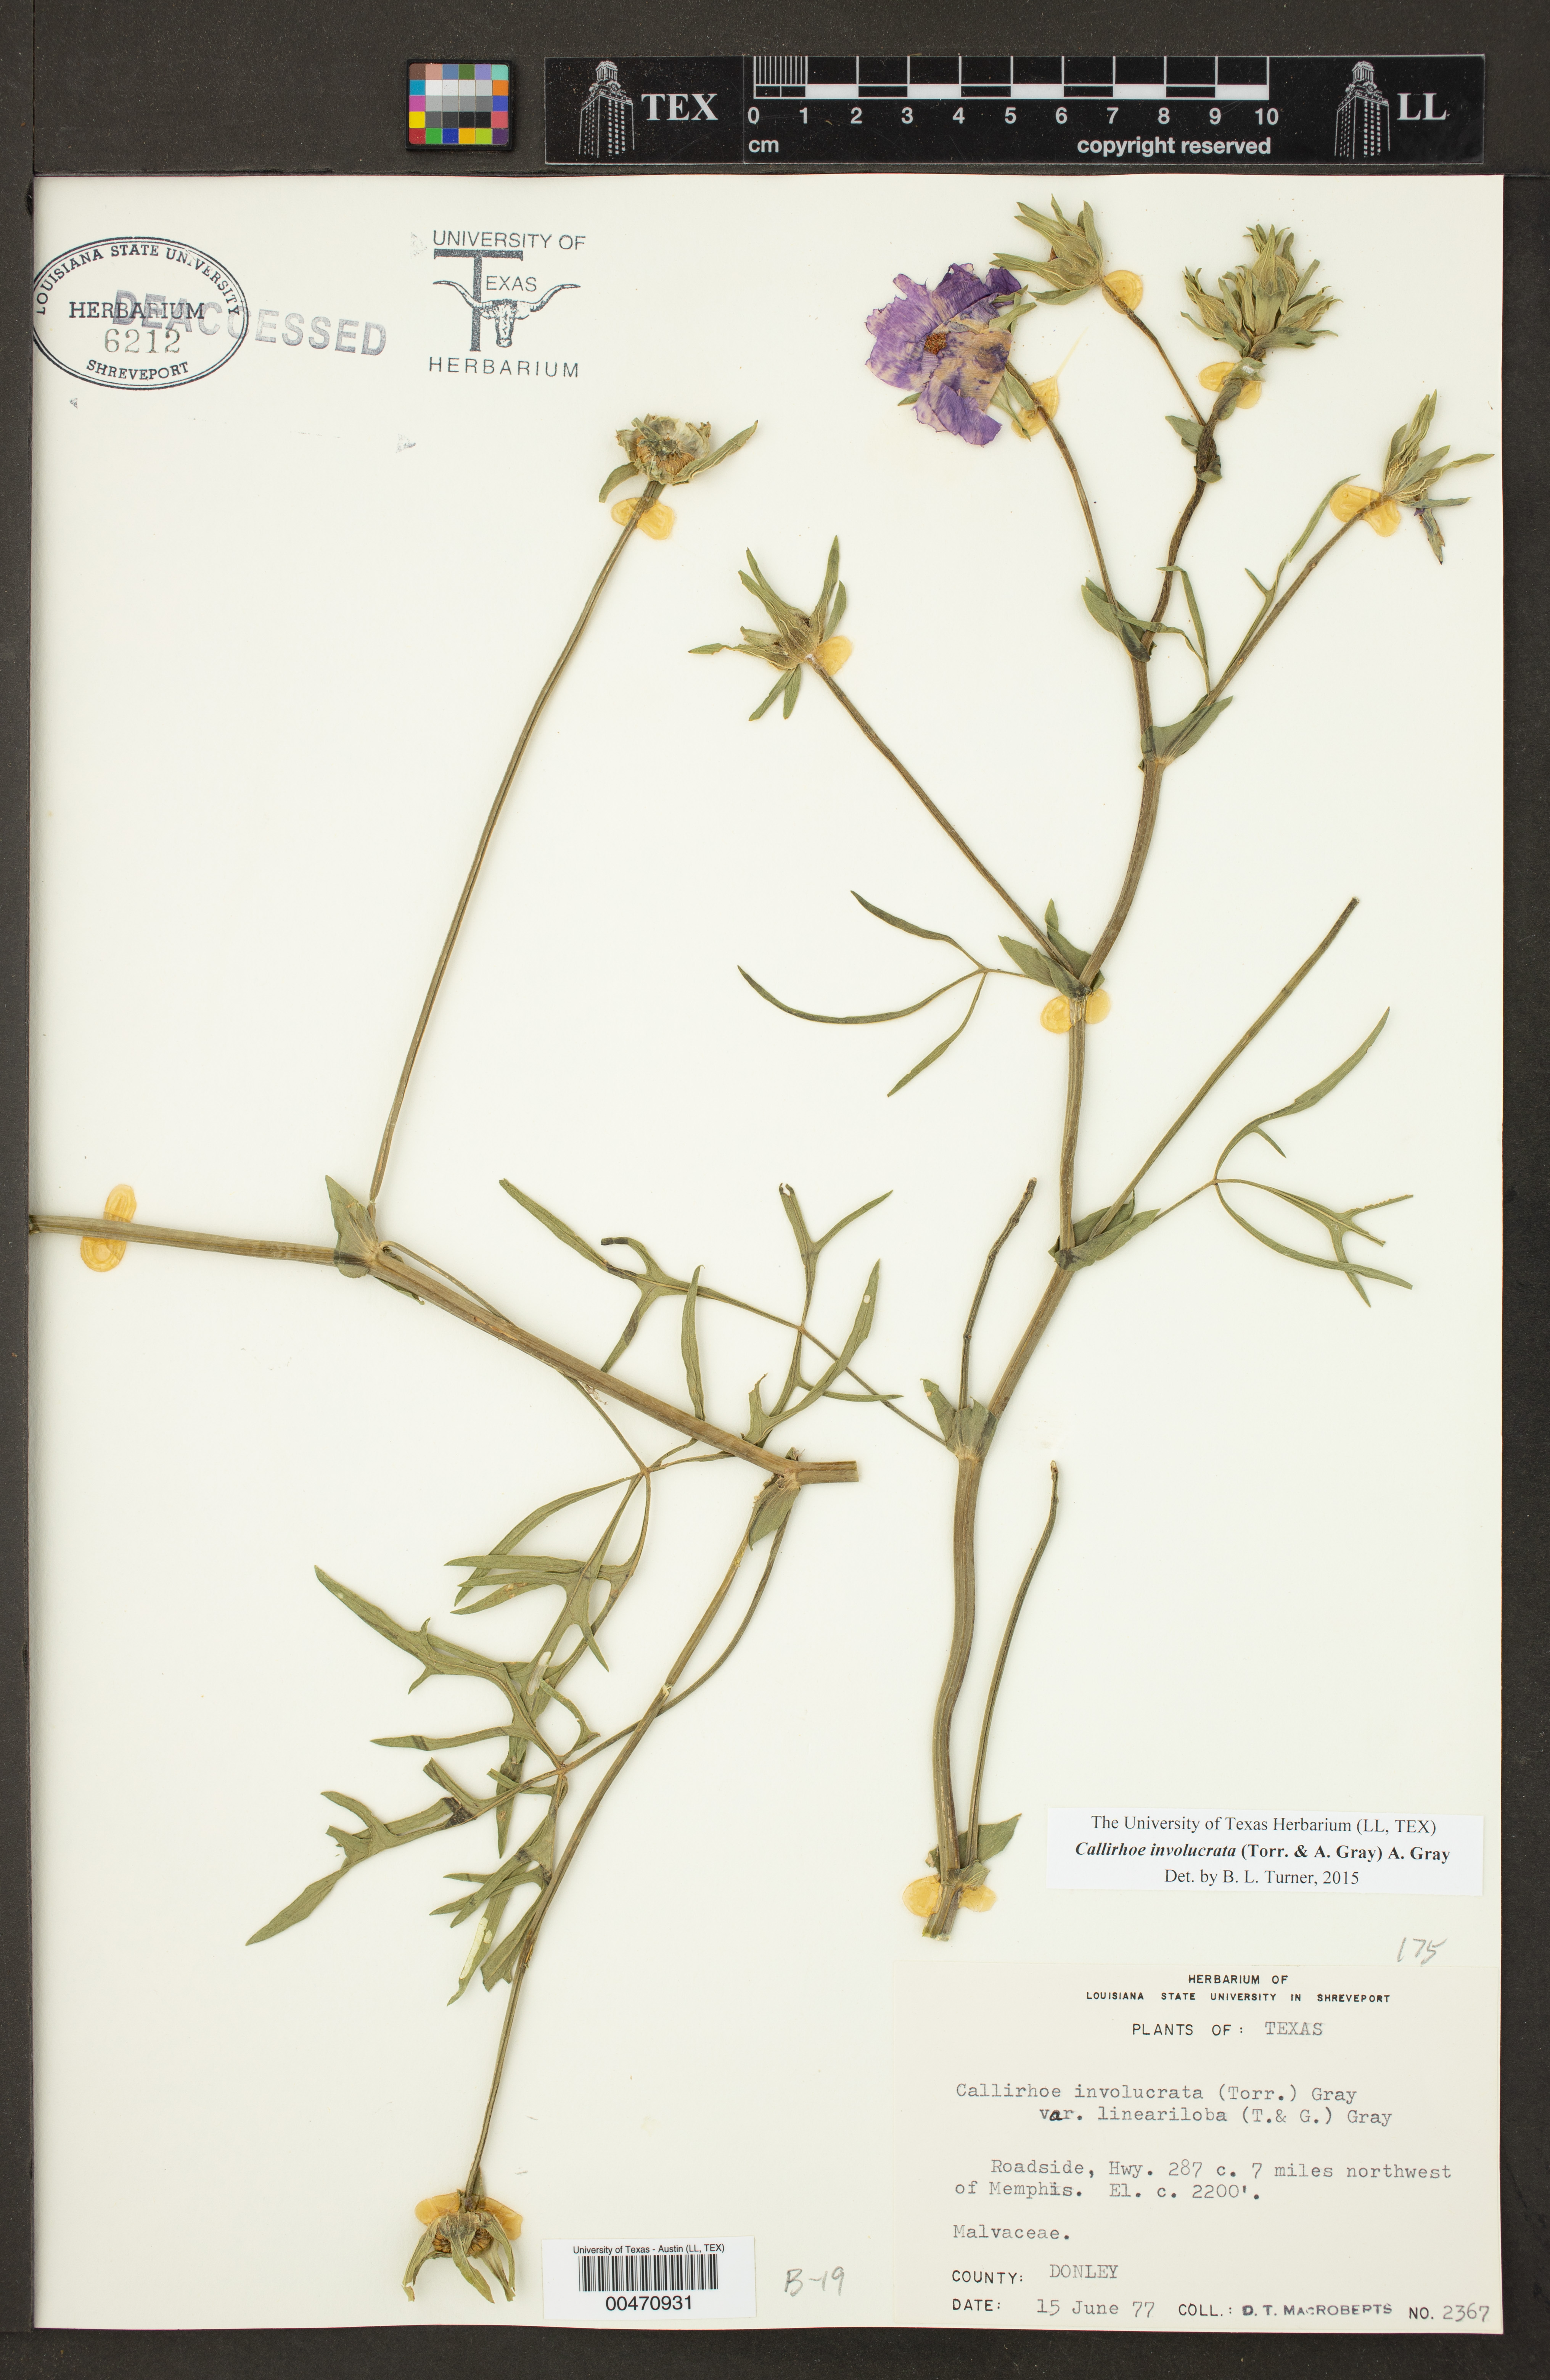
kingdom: Plantae
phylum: Tracheophyta
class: Magnoliopsida
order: Malvales
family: Malvaceae
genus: Callirhoe
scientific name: Callirhoe involucrata
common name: Purple poppy-mallow
